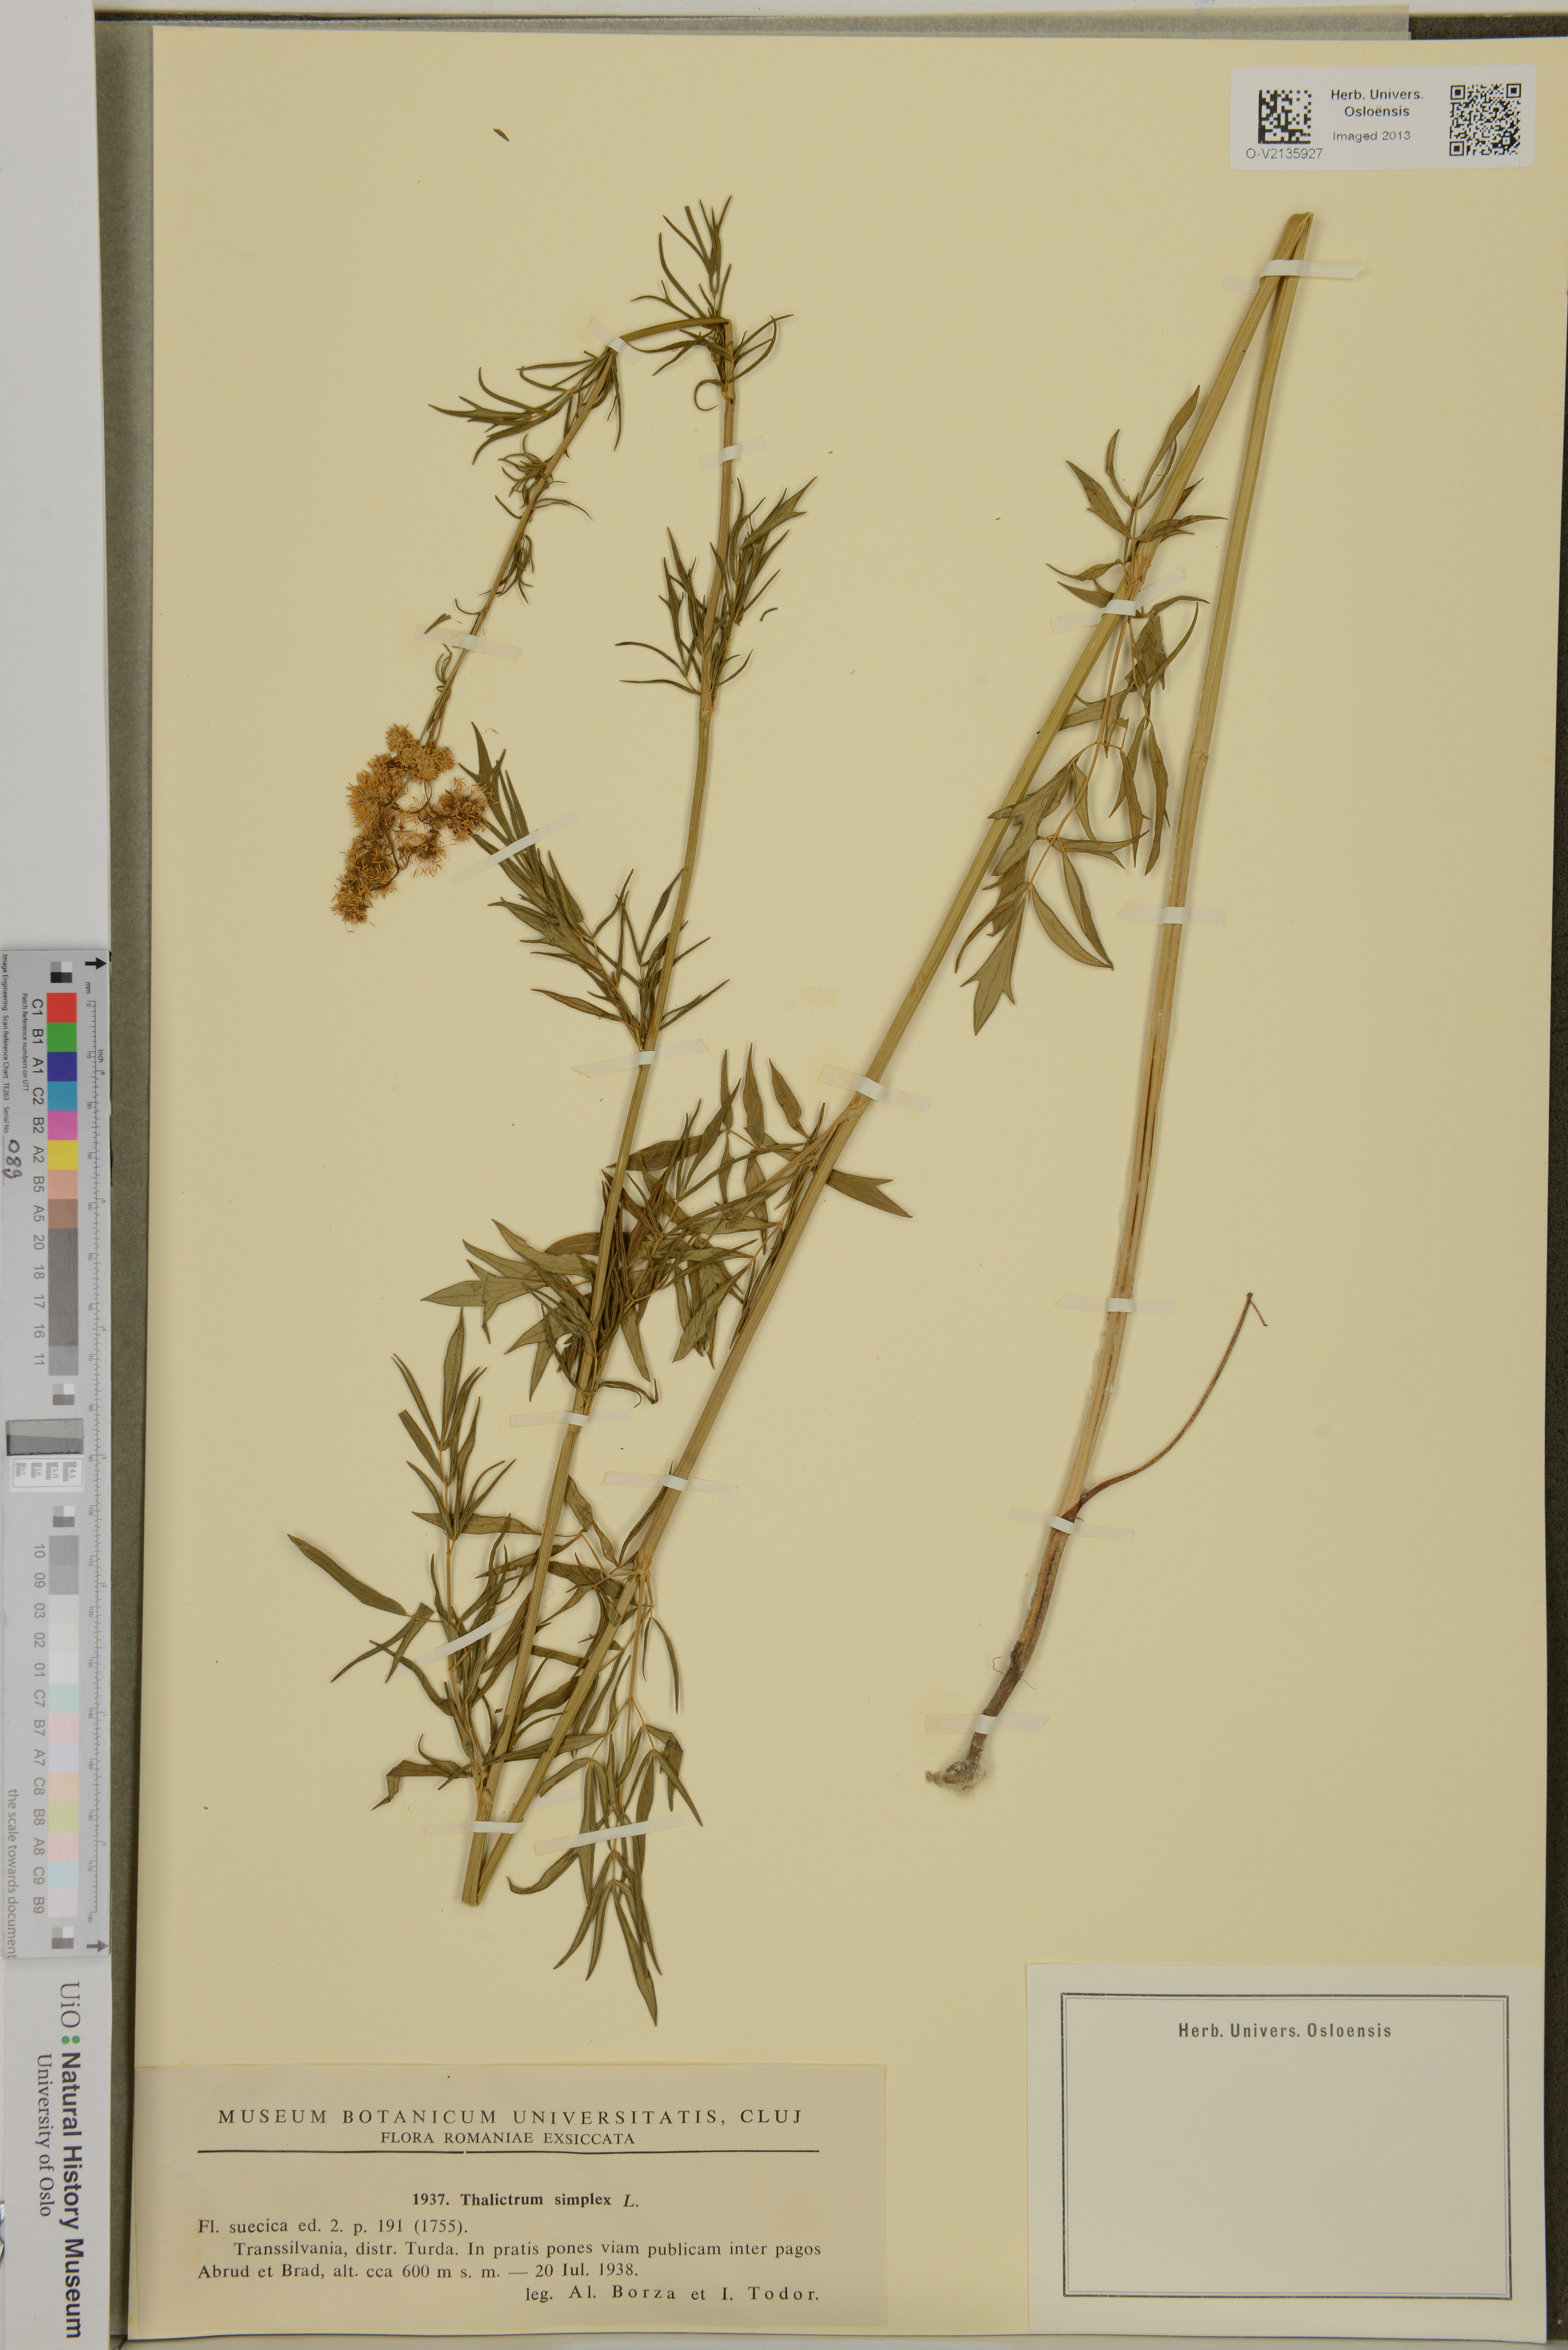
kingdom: Plantae
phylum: Tracheophyta
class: Magnoliopsida
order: Ranunculales
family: Ranunculaceae
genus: Thalictrum
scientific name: Thalictrum simplex
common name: Small meadow-rue
